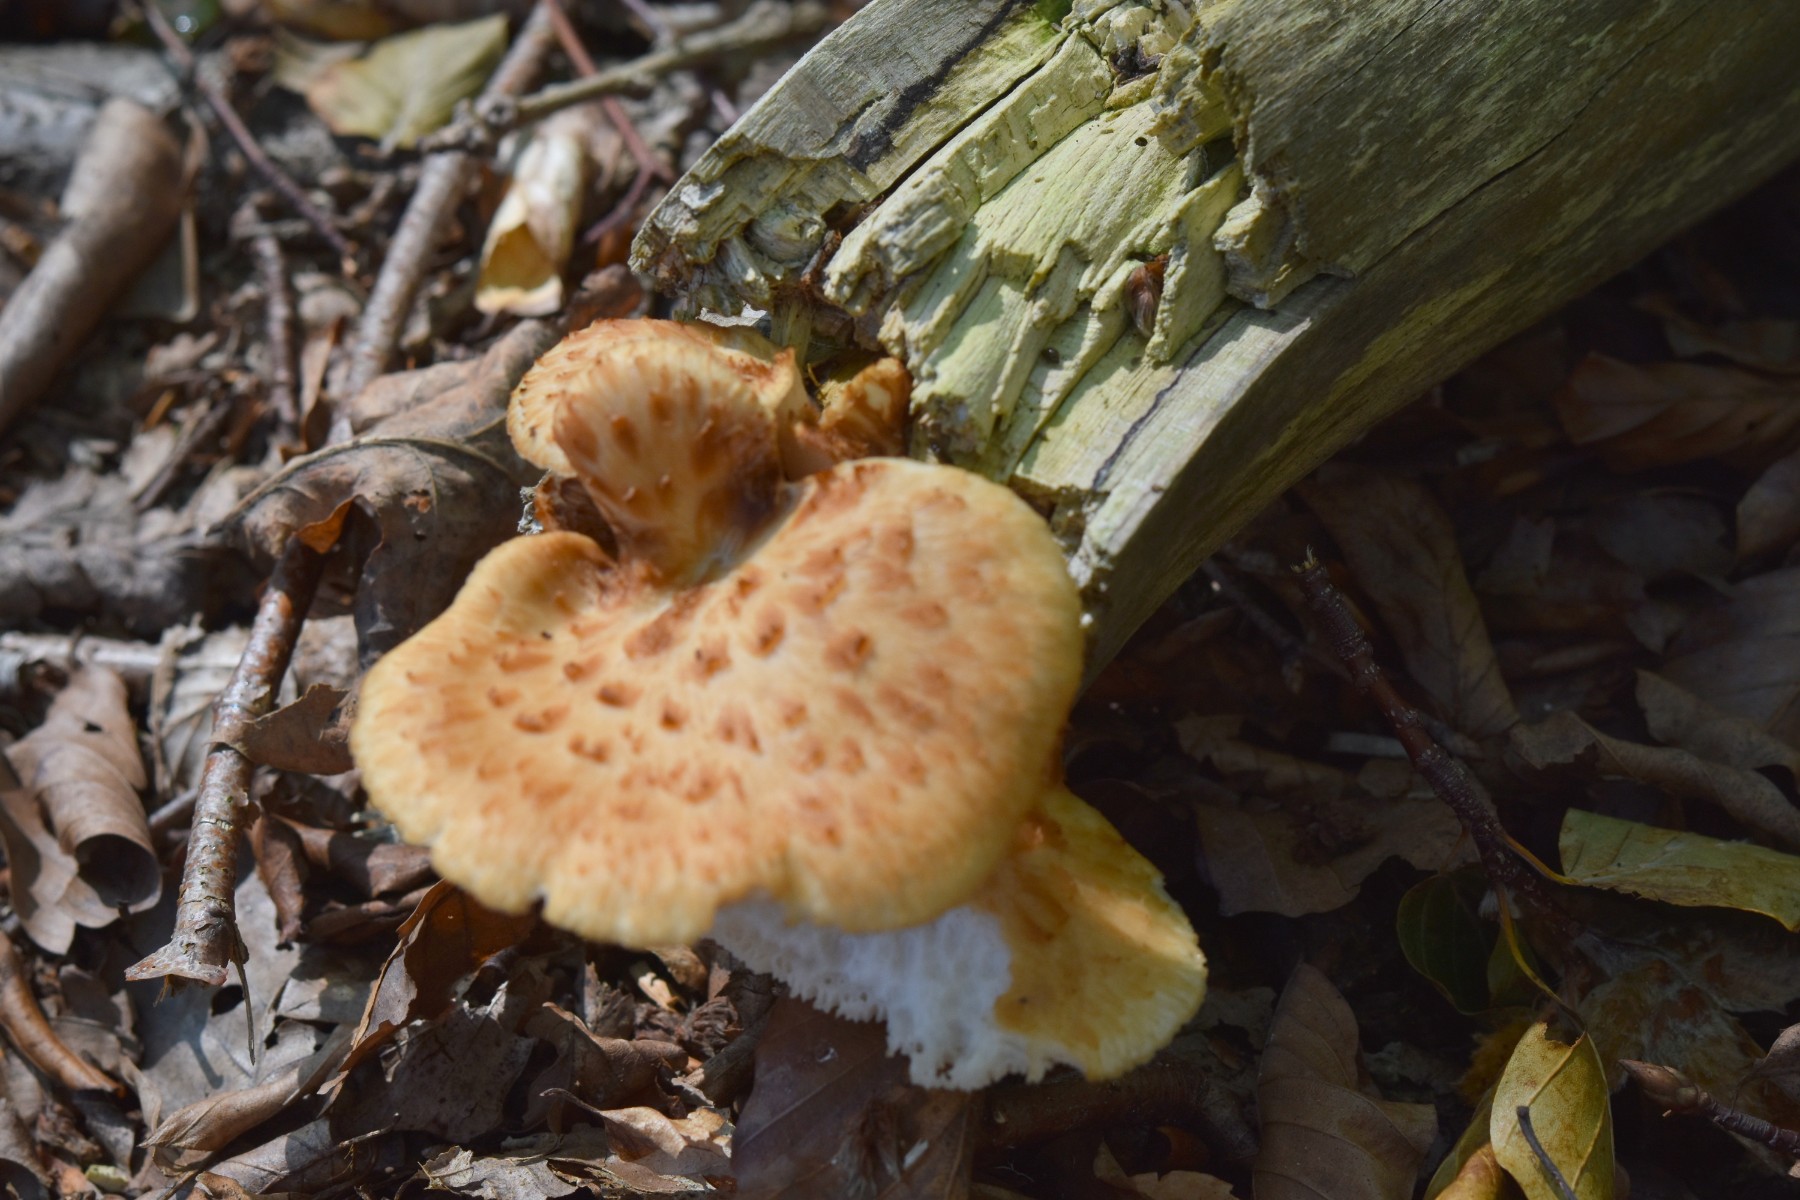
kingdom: Fungi
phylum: Basidiomycota
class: Agaricomycetes
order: Polyporales
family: Polyporaceae
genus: Polyporus
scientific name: Polyporus tuberaster
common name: knoldet stilkporesvamp
